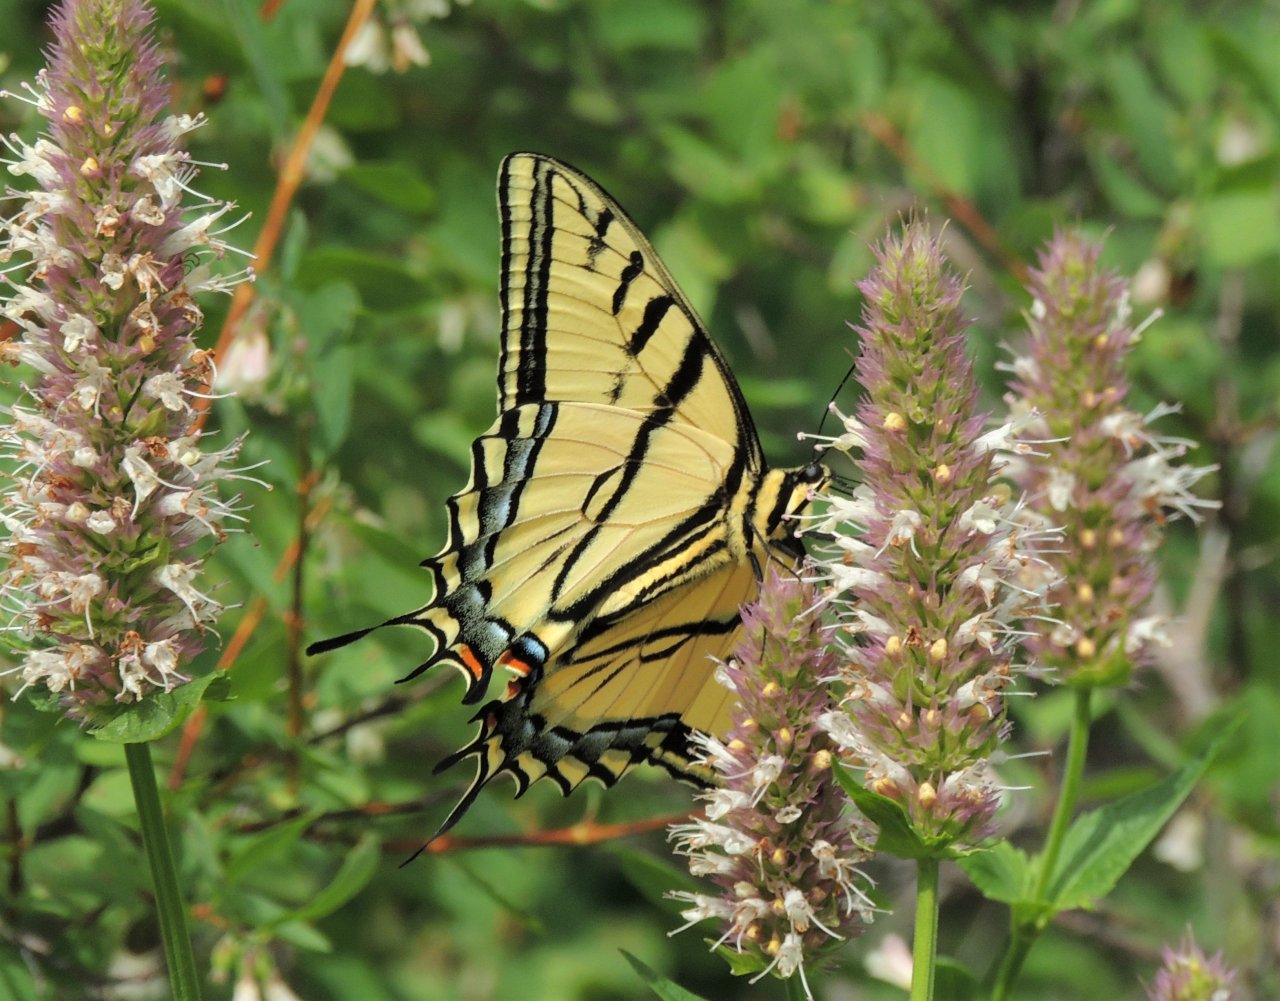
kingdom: Animalia
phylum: Arthropoda
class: Insecta
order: Lepidoptera
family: Papilionidae
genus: Papilio
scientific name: Papilio multicaudata
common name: Two-tailed Swallowtail
